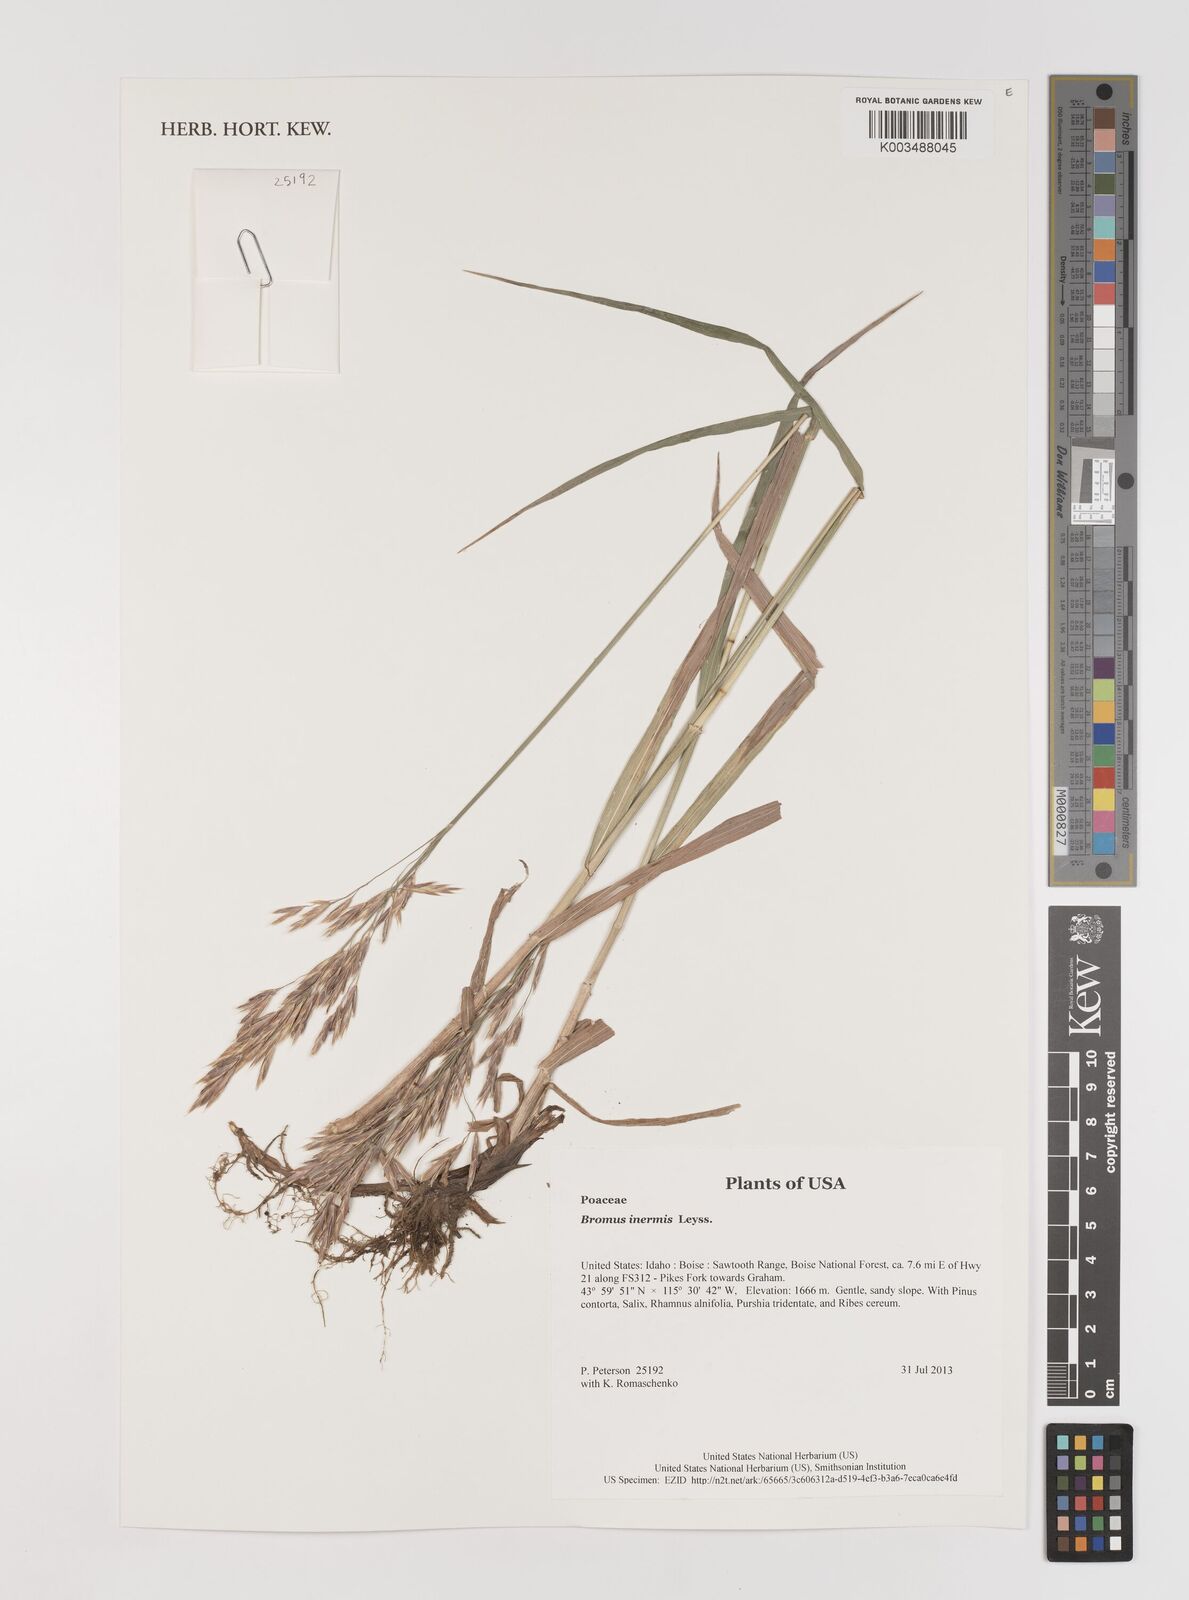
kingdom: Plantae
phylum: Tracheophyta
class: Liliopsida
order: Poales
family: Poaceae
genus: Bromus
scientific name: Bromus inermis
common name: Smooth brome
